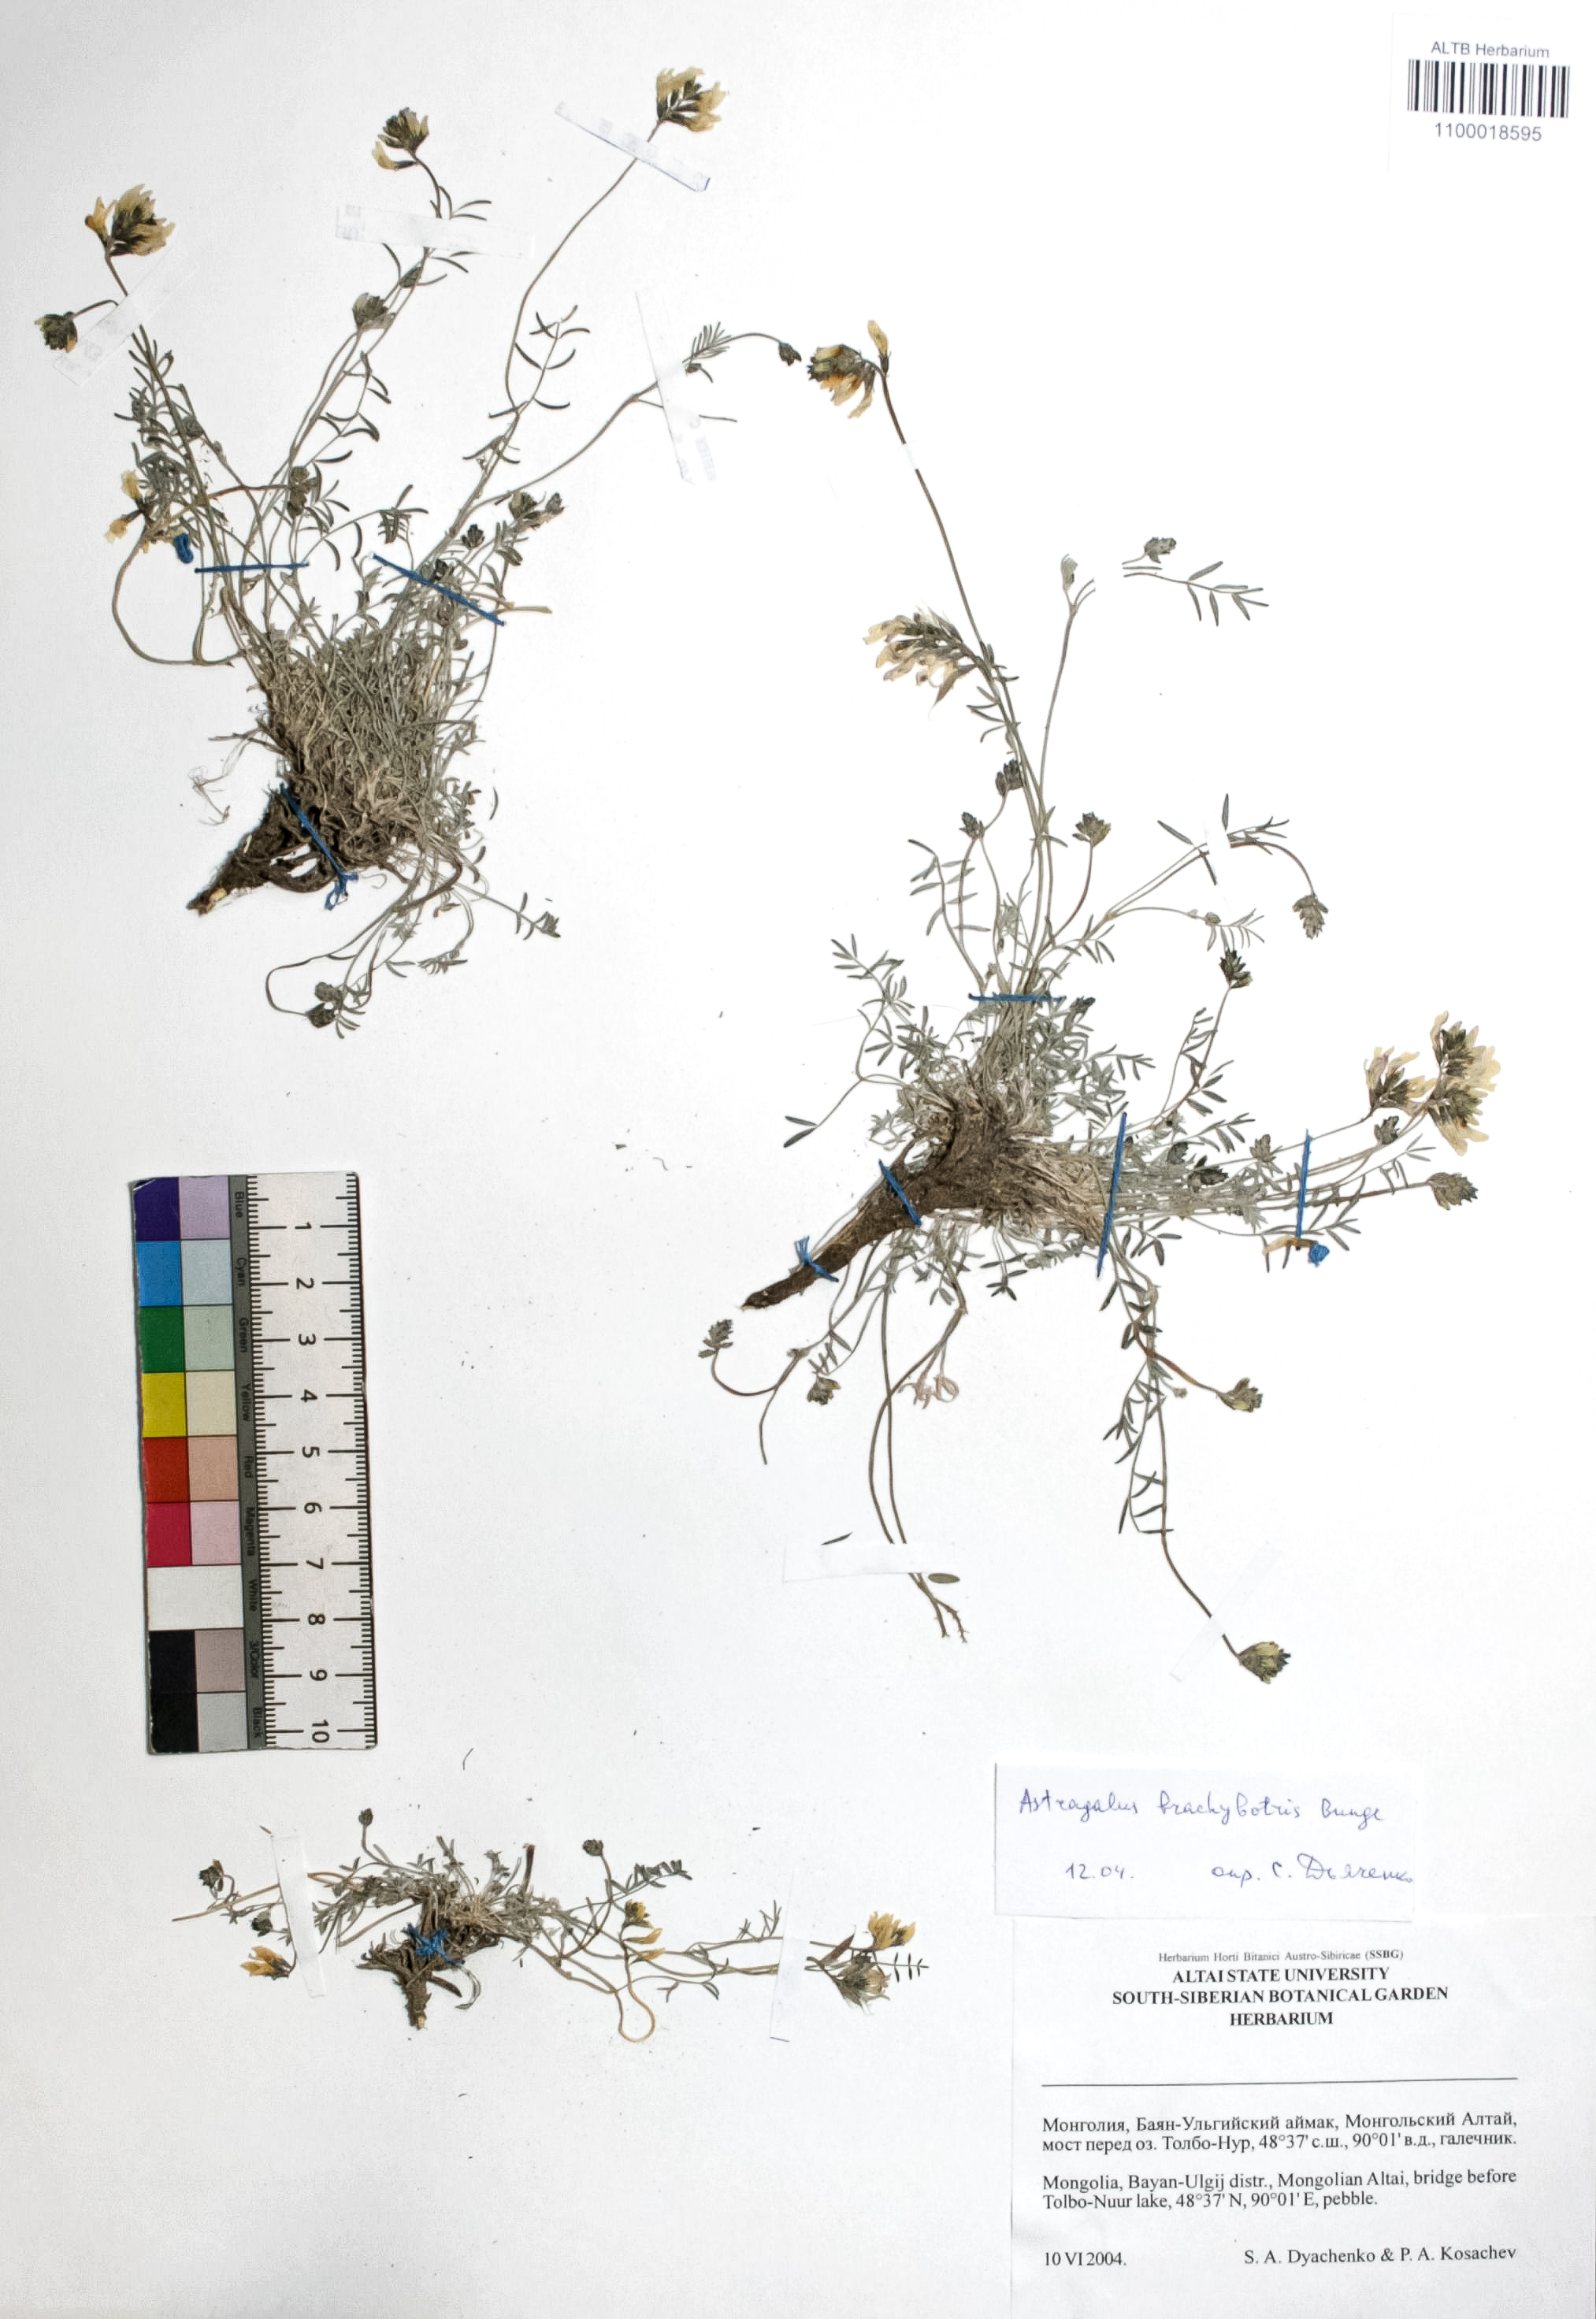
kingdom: Plantae
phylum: Tracheophyta
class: Magnoliopsida
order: Fabales
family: Fabaceae
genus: Astragalus
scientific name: Astragalus brachybotrys
